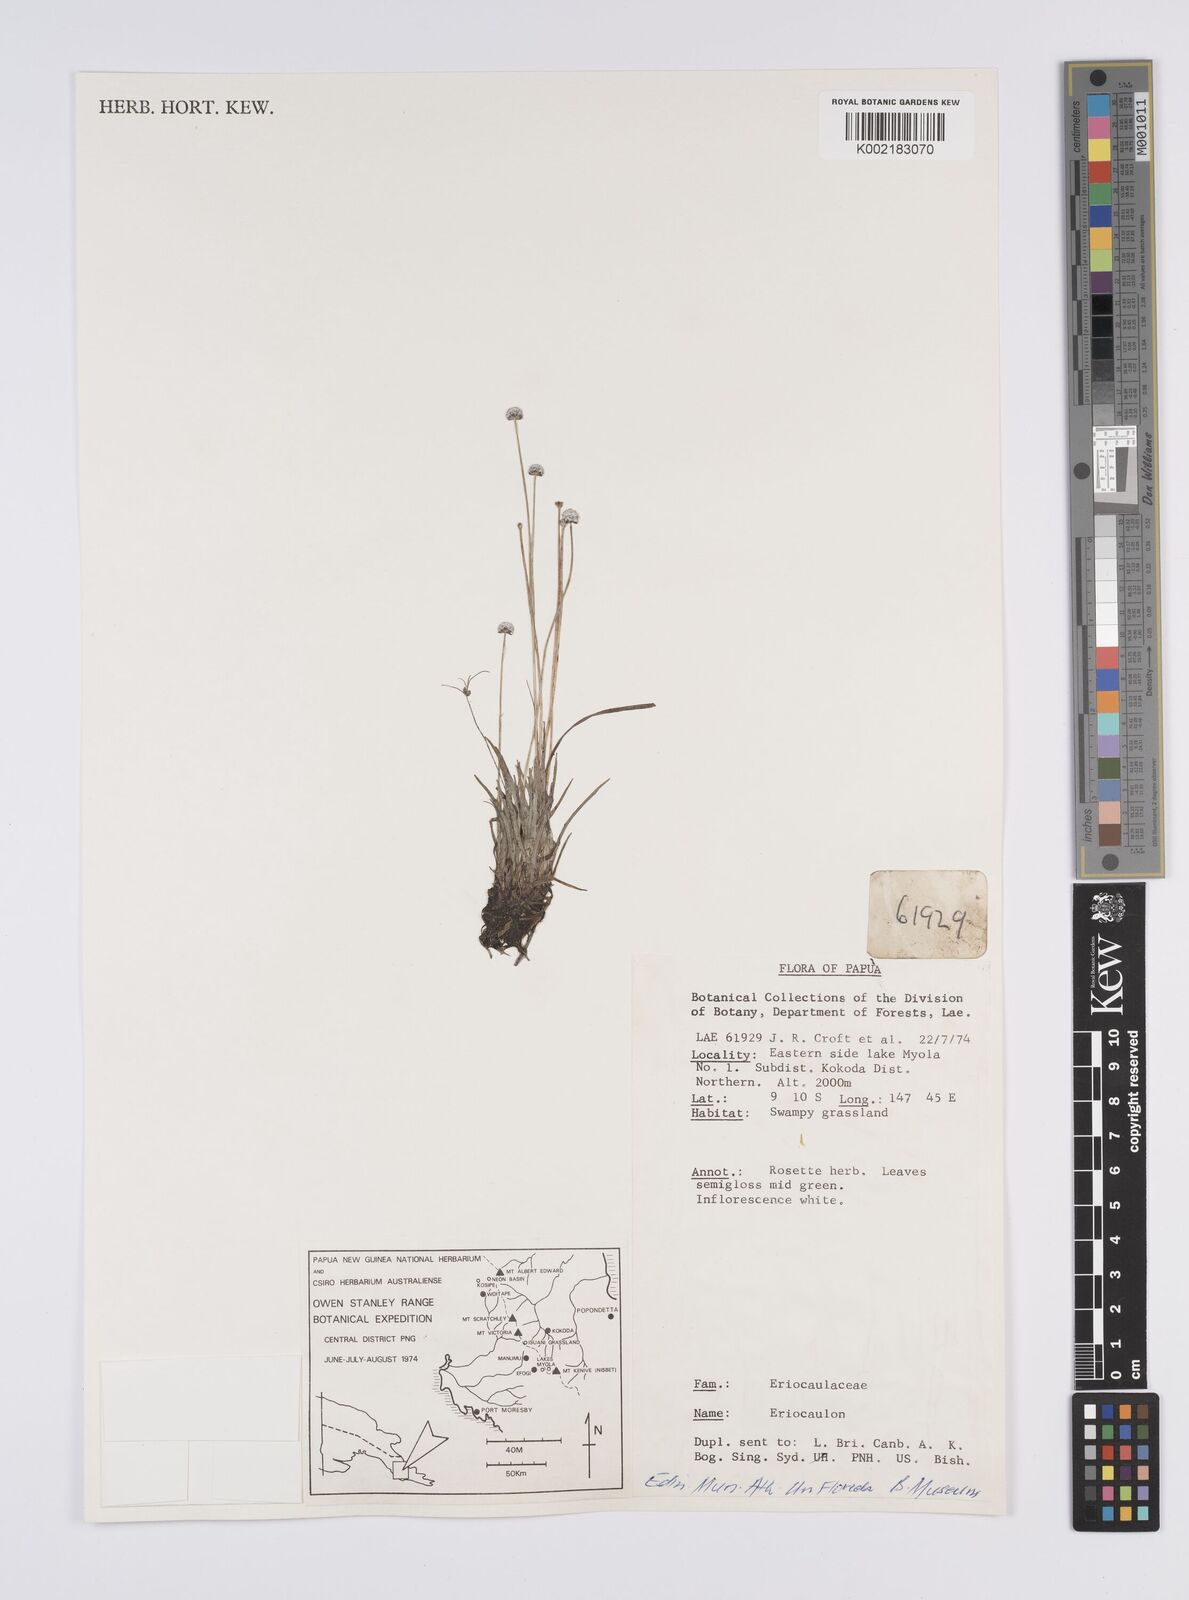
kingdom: Plantae
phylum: Tracheophyta
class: Liliopsida
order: Poales
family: Eriocaulaceae
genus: Eriocaulon
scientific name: Eriocaulon
